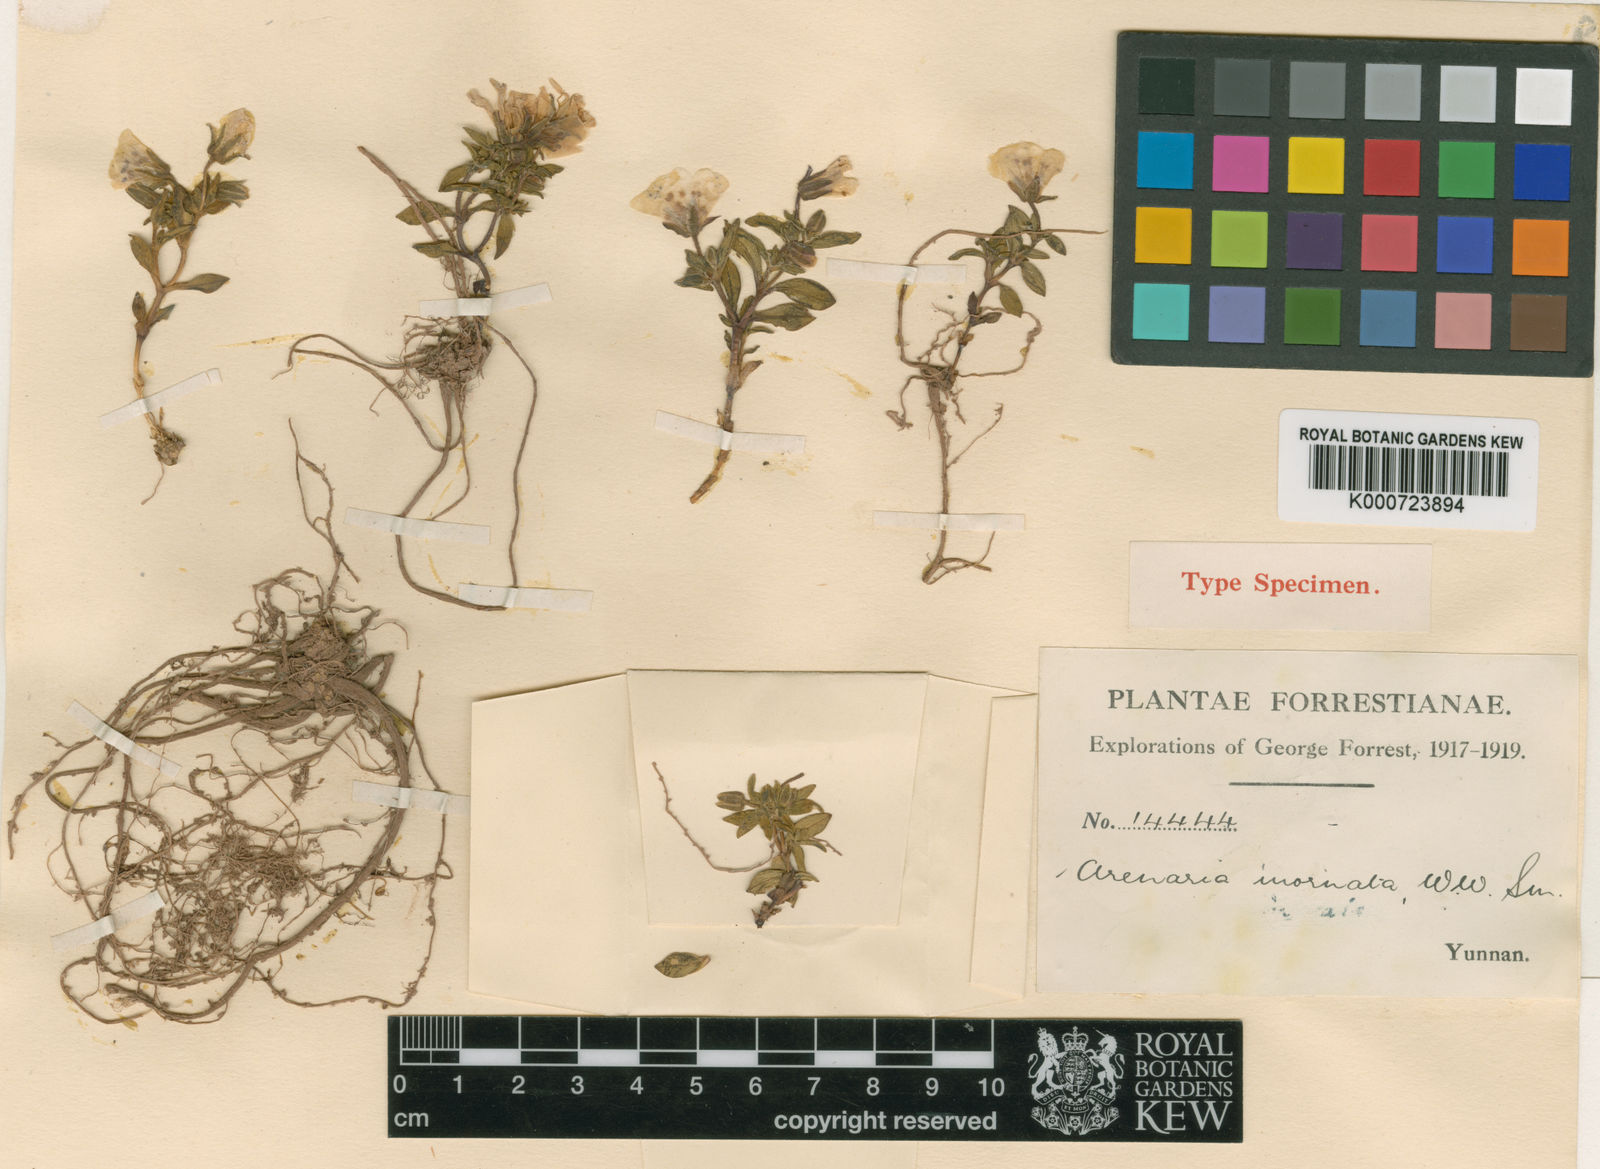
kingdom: Plantae
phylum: Tracheophyta
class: Magnoliopsida
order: Caryophyllales
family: Caryophyllaceae
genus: Odontostemma
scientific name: Odontostemma inornatum
